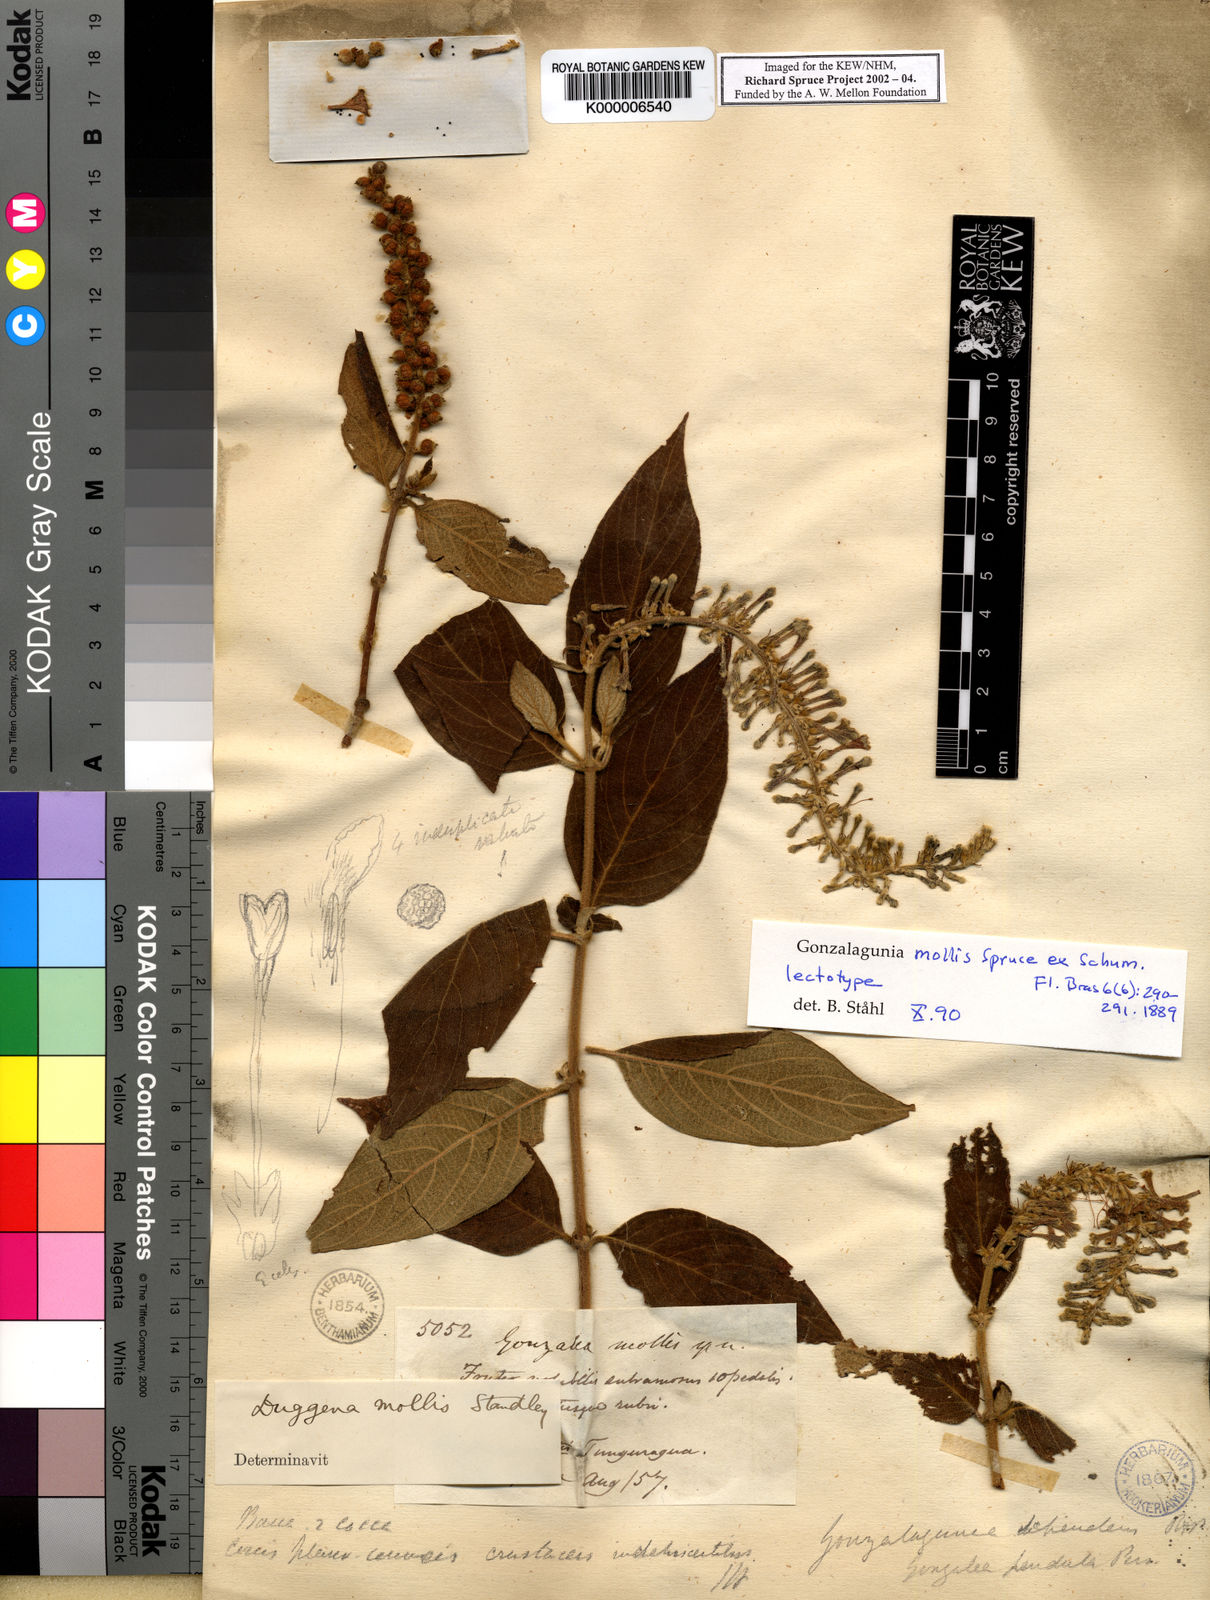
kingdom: Plantae
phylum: Tracheophyta
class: Magnoliopsida
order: Gentianales
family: Rubiaceae
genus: Gonzalagunia
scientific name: Gonzalagunia mollis
